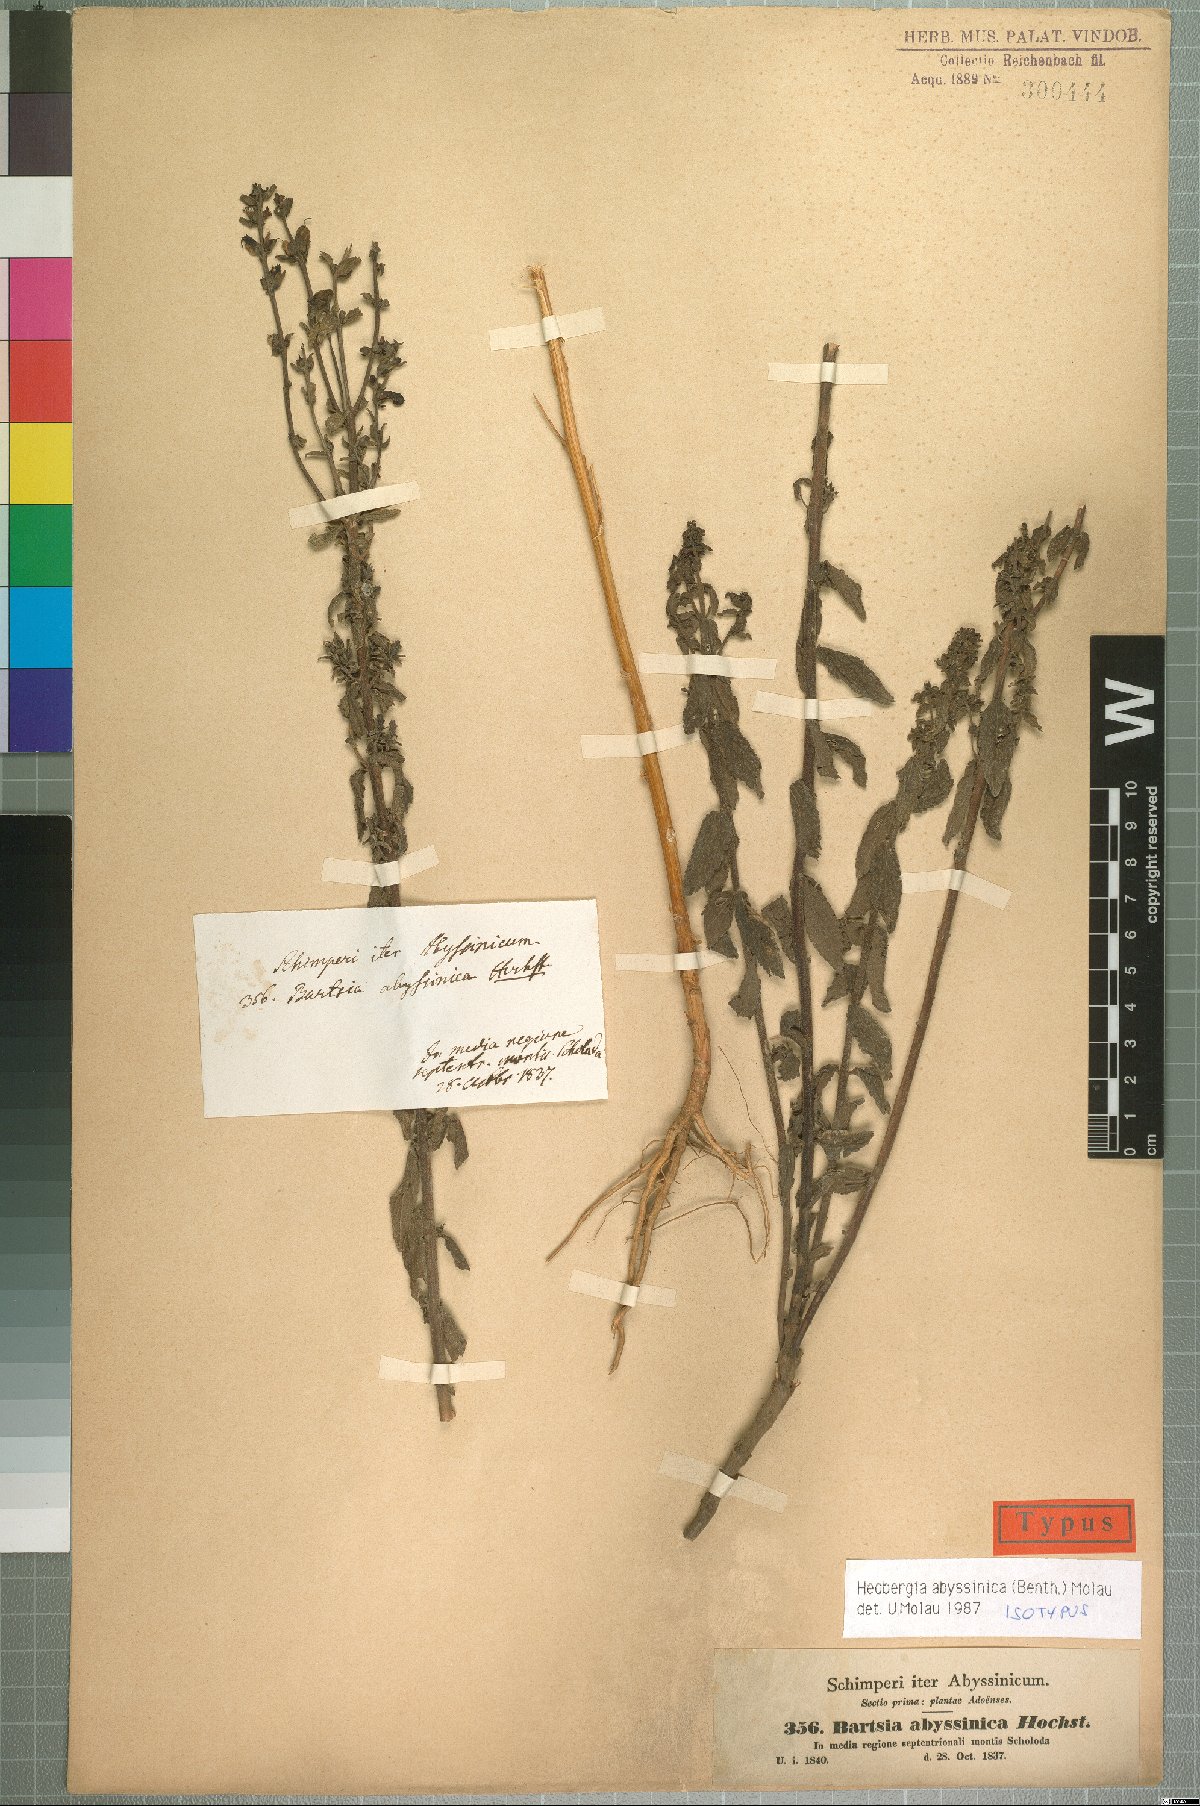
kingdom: Plantae
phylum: Tracheophyta
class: Magnoliopsida
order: Lamiales
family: Orobanchaceae
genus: Hedbergia
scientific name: Hedbergia abyssinica
